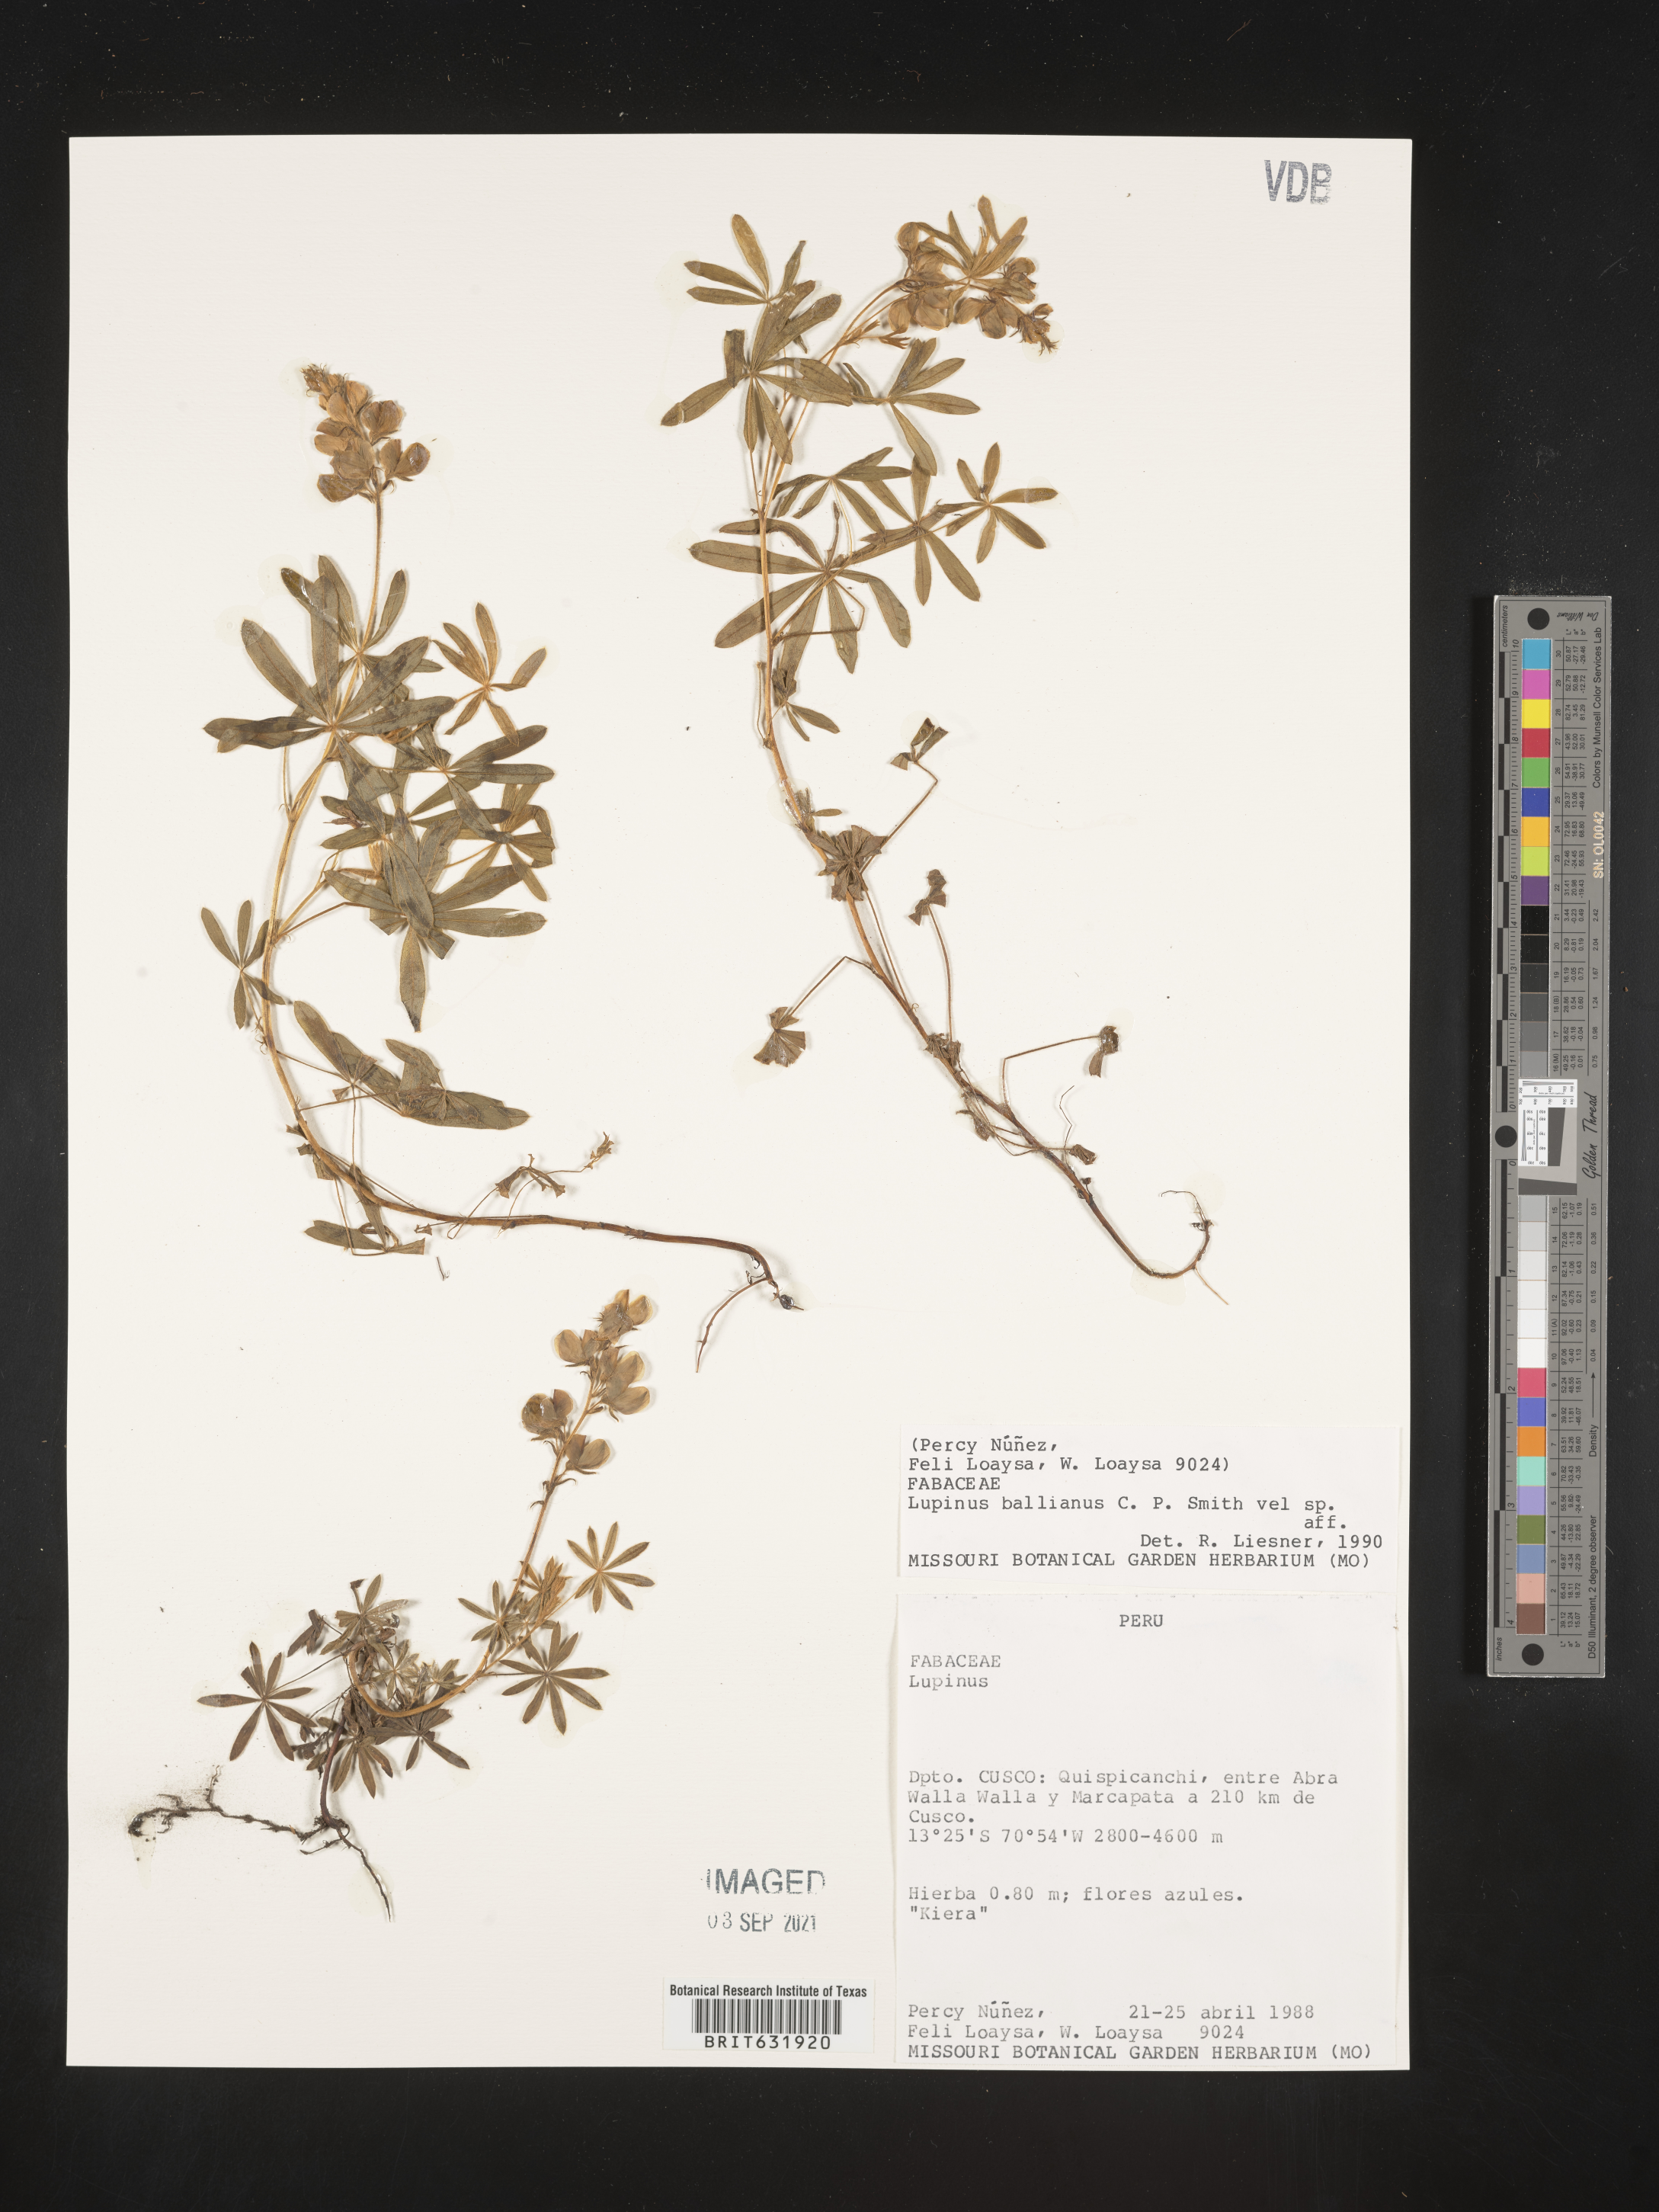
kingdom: Plantae
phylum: Tracheophyta
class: Magnoliopsida
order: Fabales
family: Fabaceae
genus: Lupinus
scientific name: Lupinus
